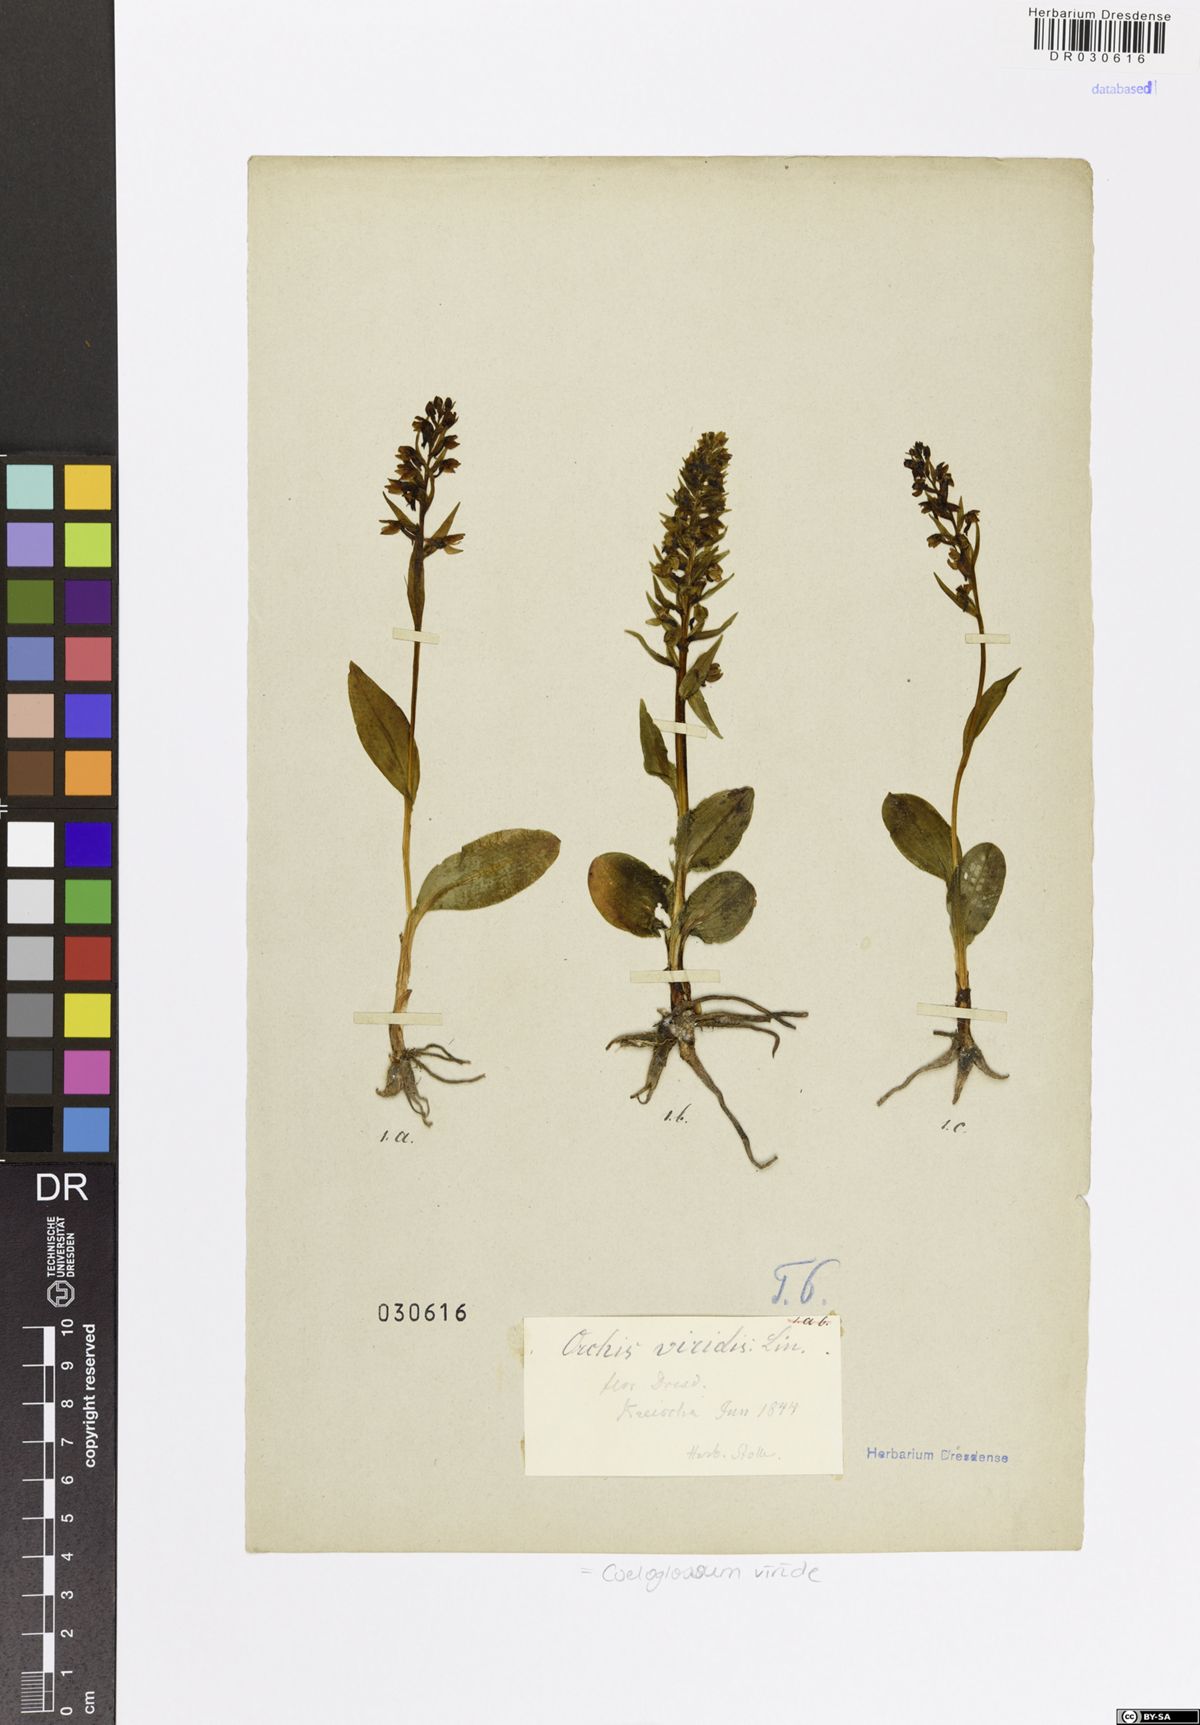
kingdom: Plantae
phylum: Tracheophyta
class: Liliopsida
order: Asparagales
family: Orchidaceae
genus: Dactylorhiza
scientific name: Dactylorhiza viridis
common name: Longbract frog orchid
